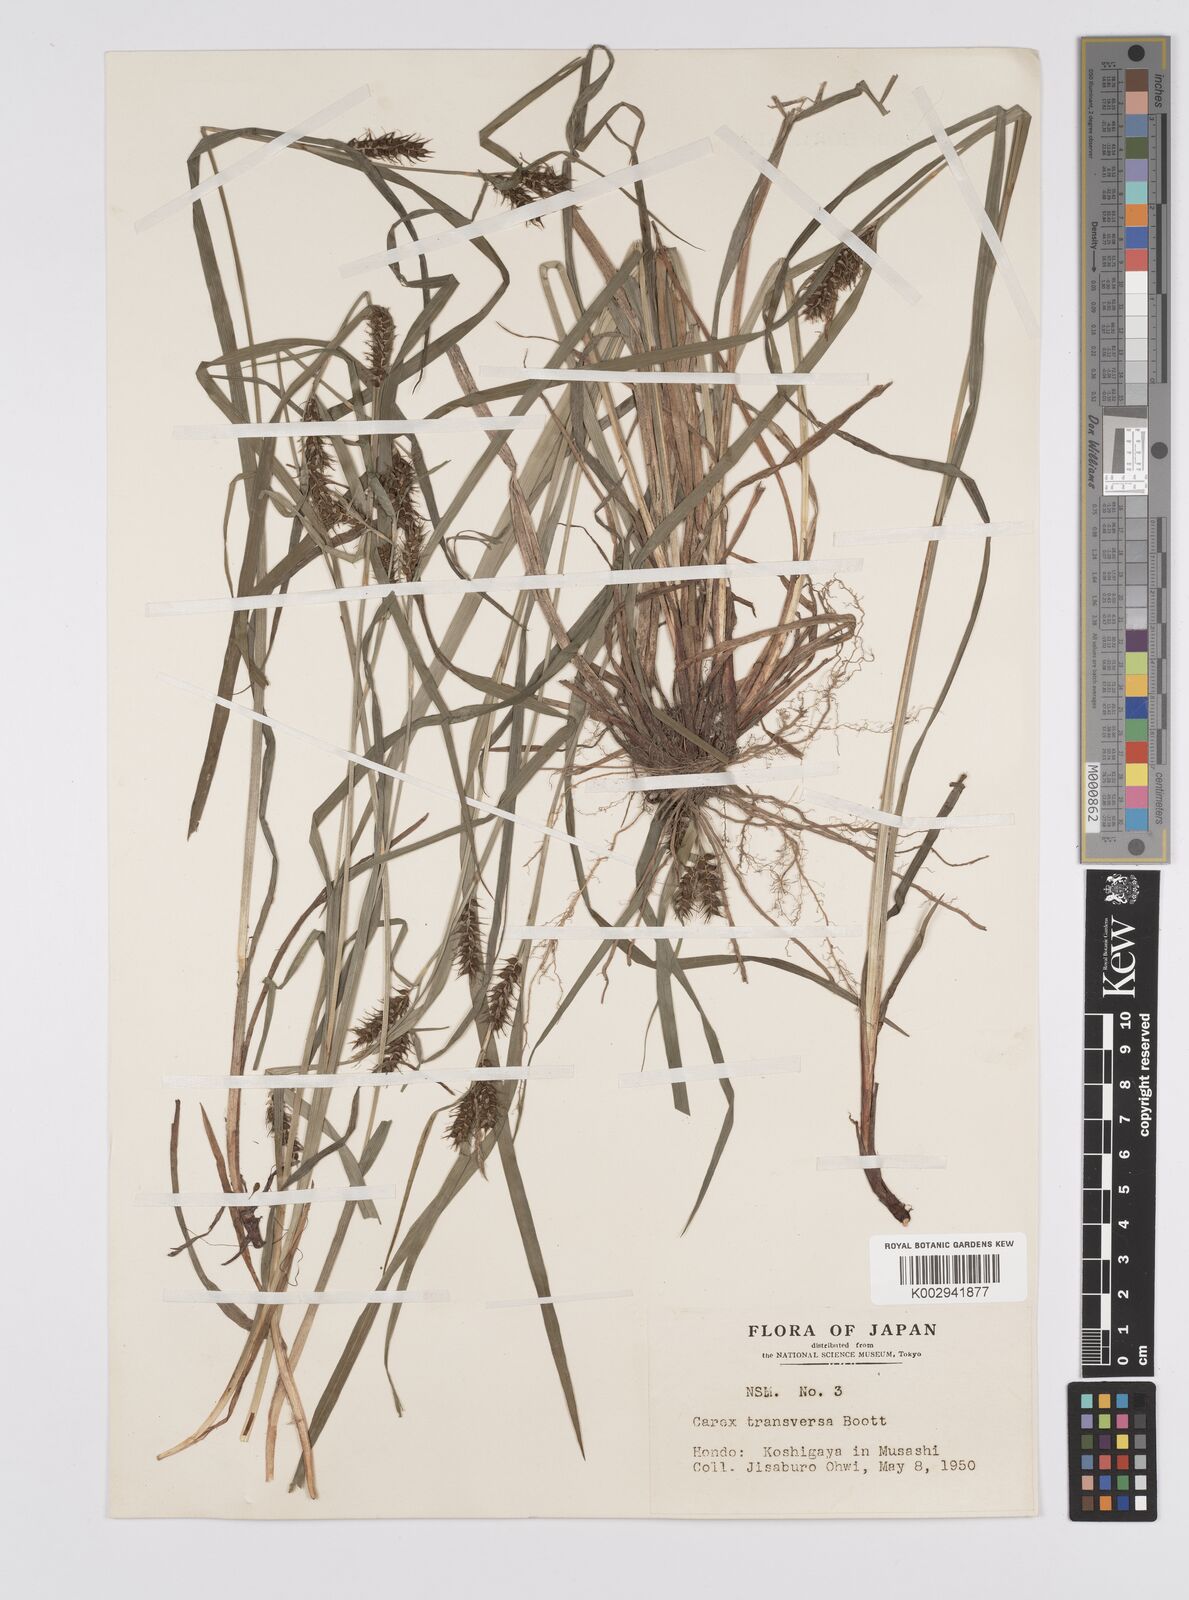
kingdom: Plantae
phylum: Tracheophyta
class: Liliopsida
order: Poales
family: Cyperaceae
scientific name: Cyperaceae
